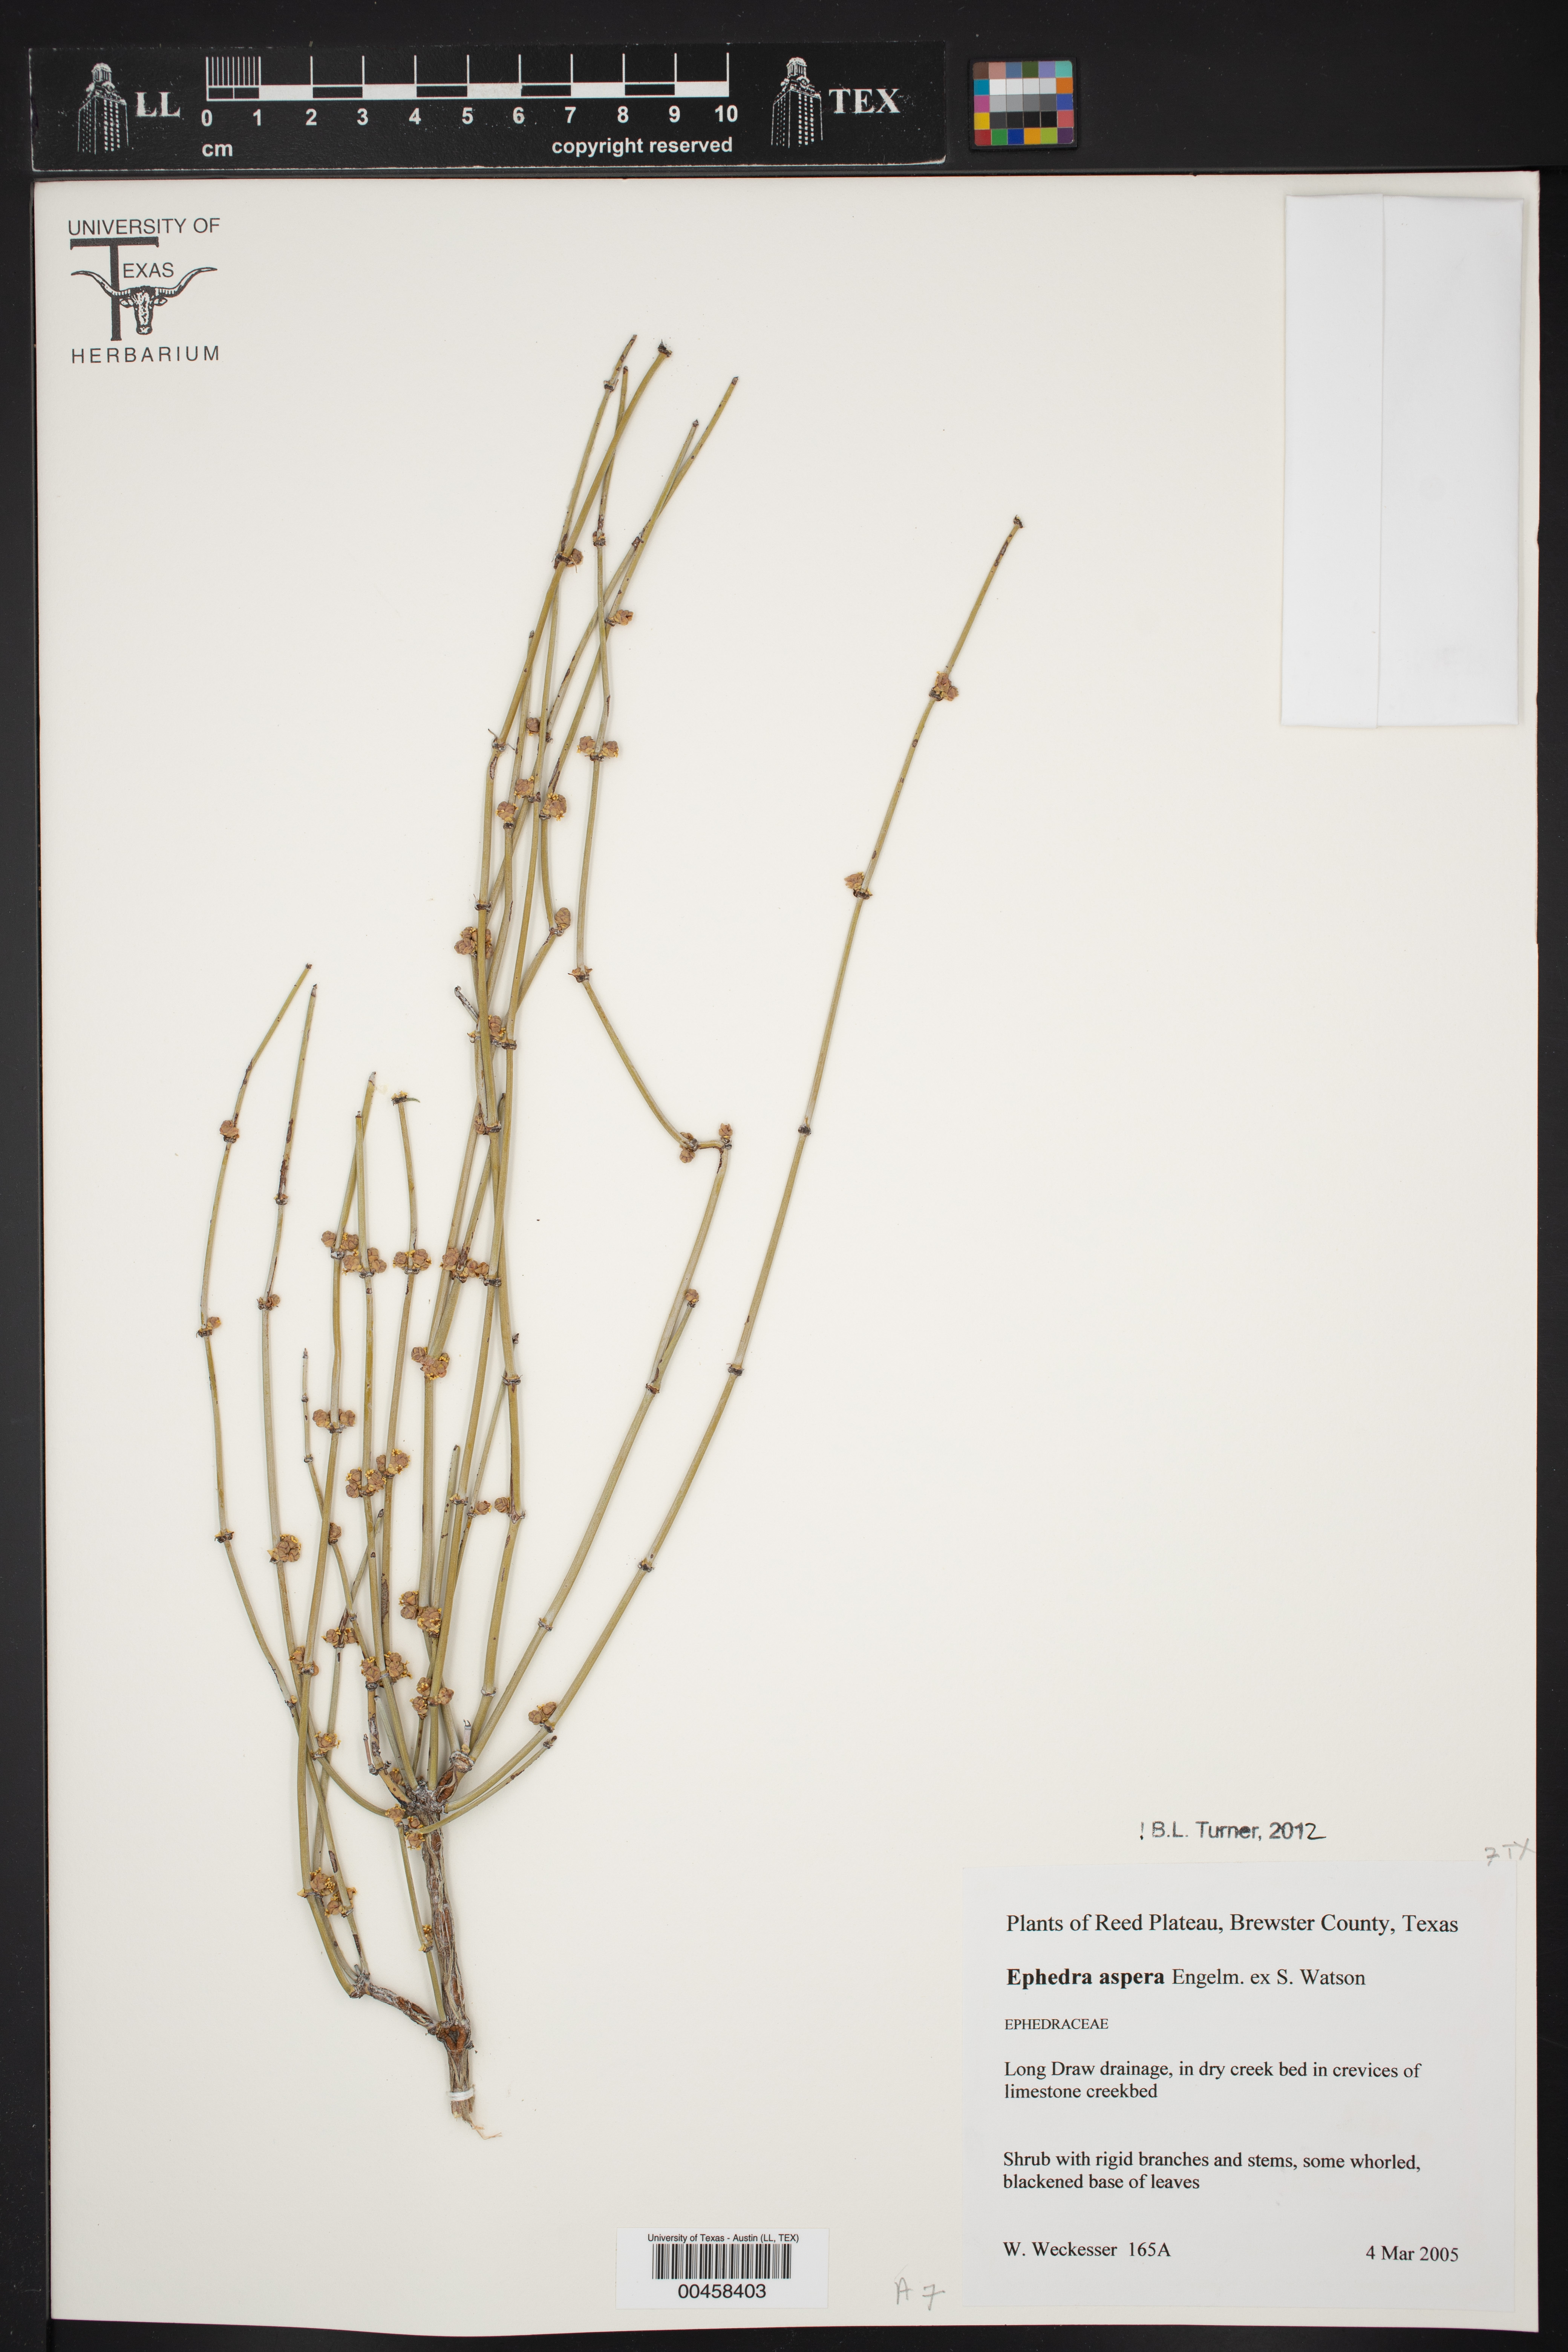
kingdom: Plantae
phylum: Tracheophyta
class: Gnetopsida
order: Ephedrales
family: Ephedraceae
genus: Ephedra
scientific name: Ephedra aspera
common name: Boundary ephedra
